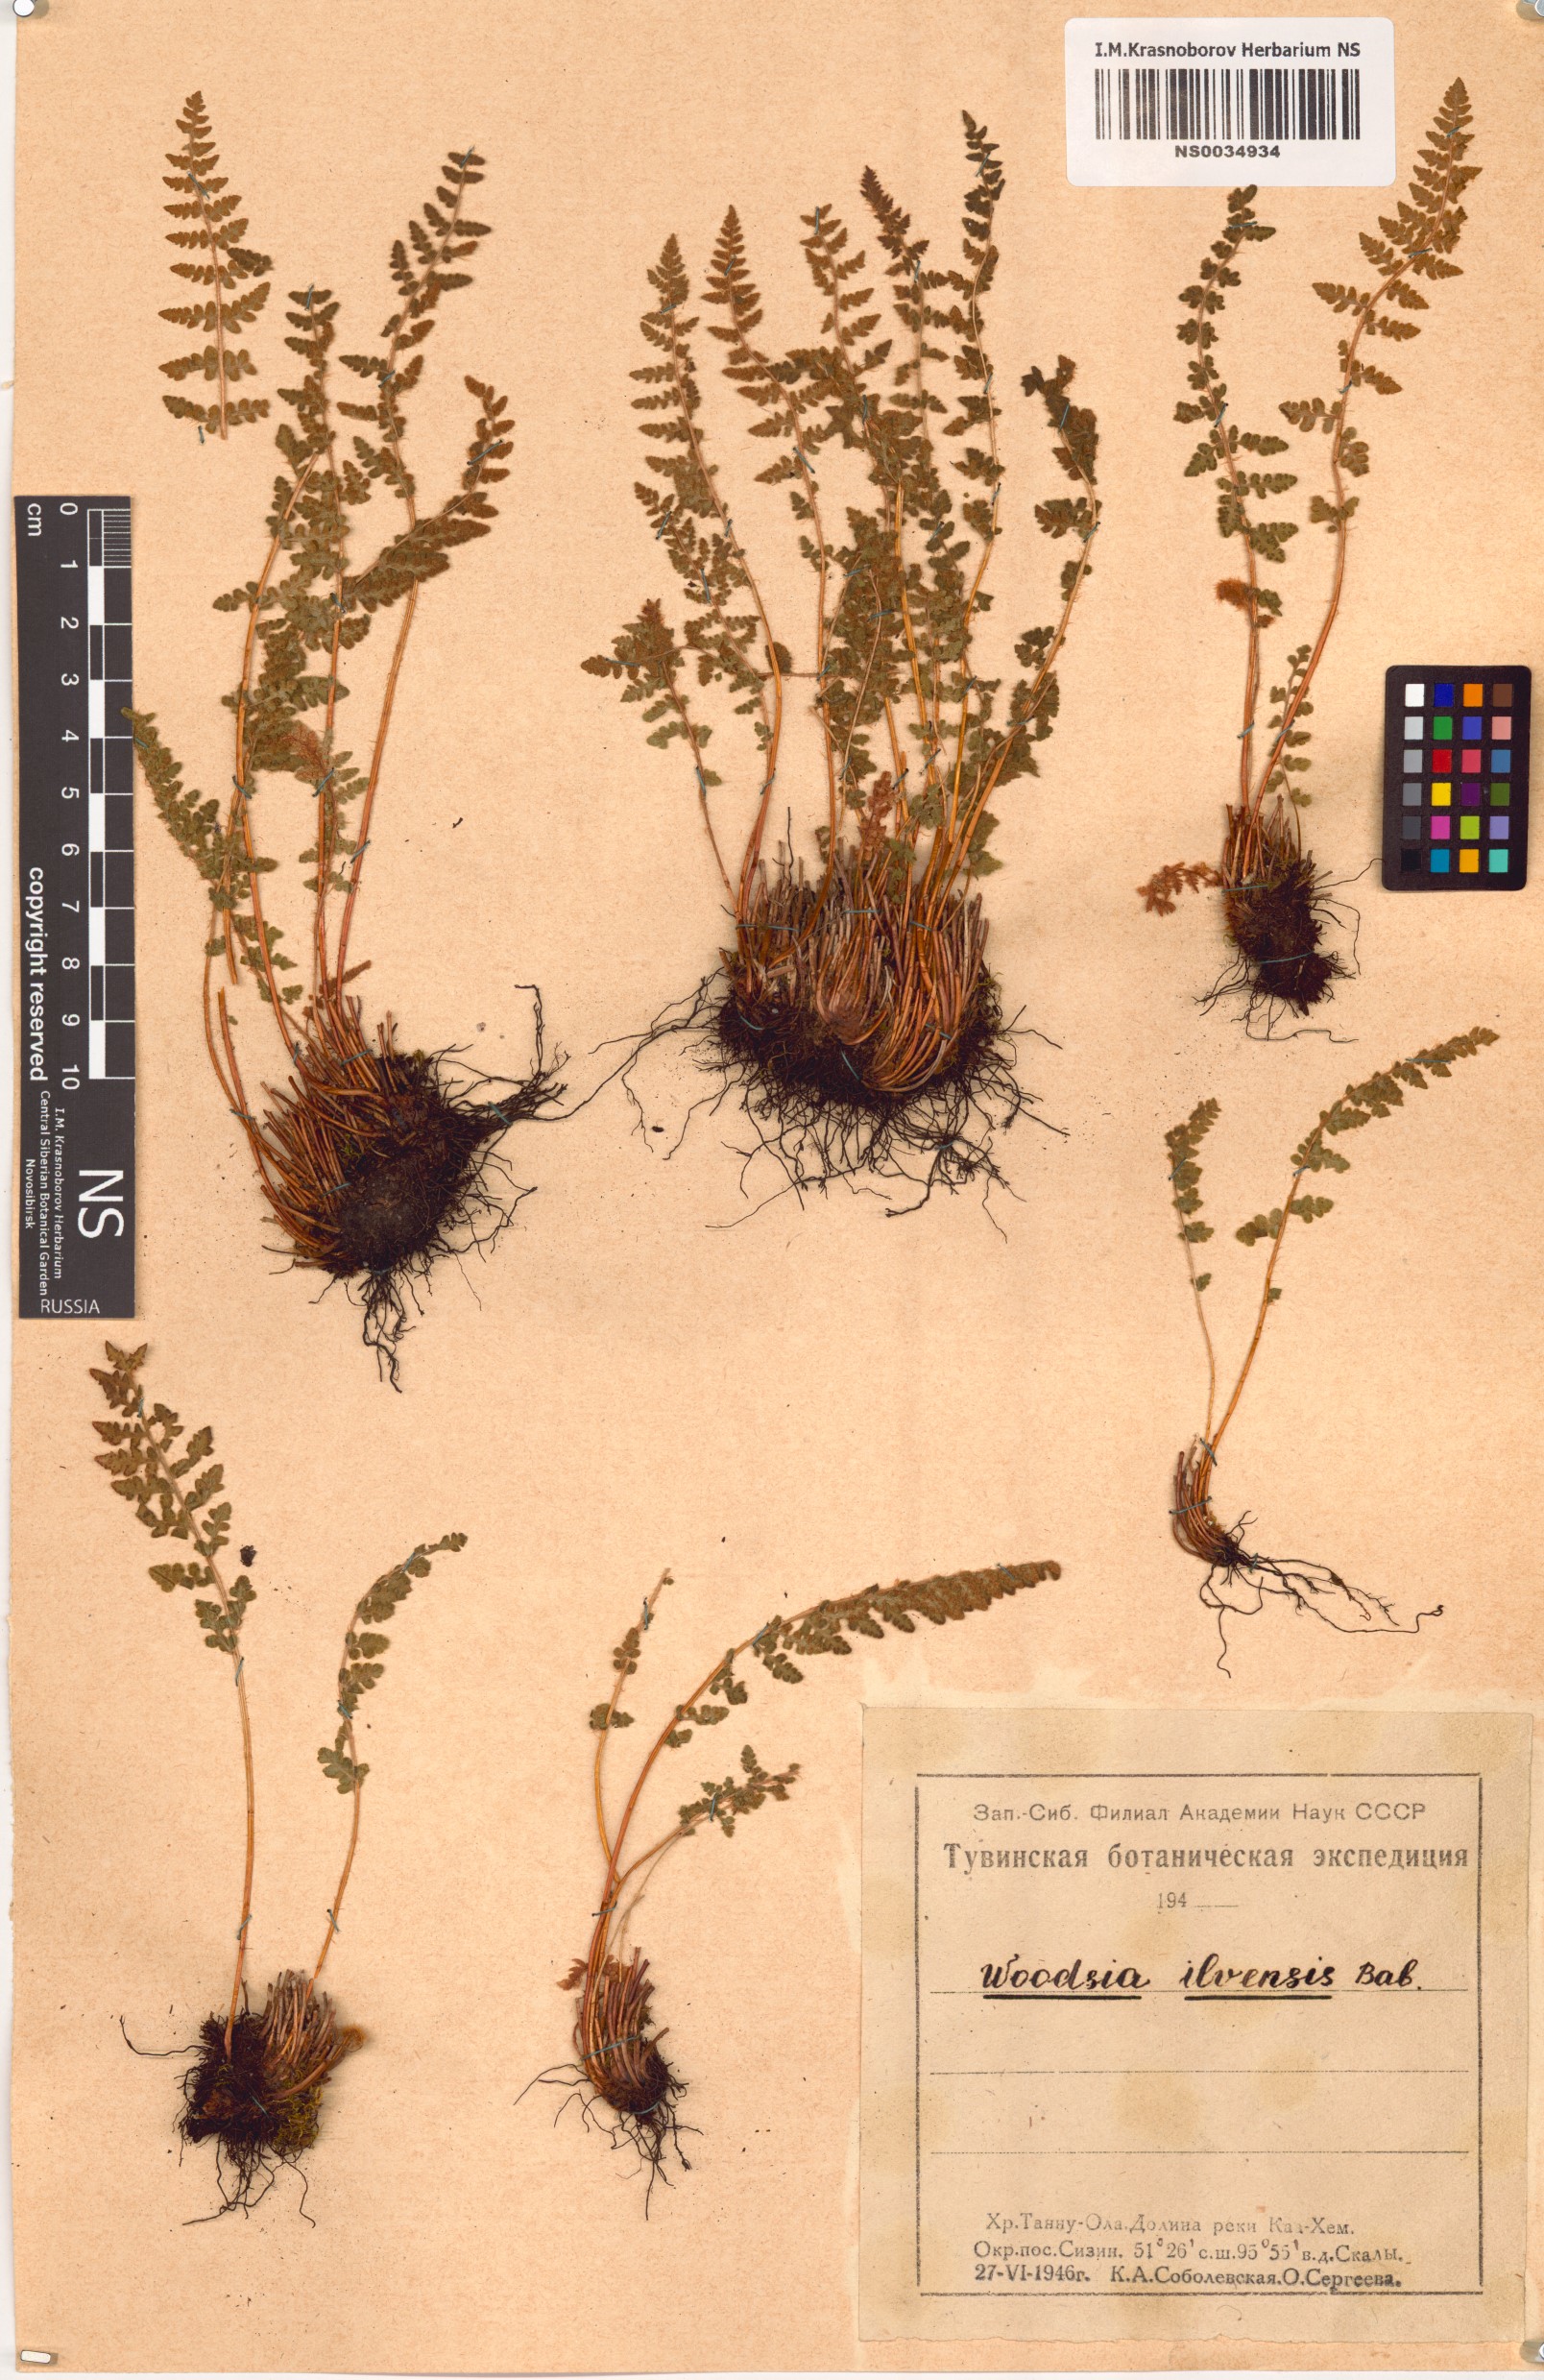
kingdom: Plantae
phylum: Tracheophyta
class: Polypodiopsida
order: Polypodiales
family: Woodsiaceae
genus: Woodsia
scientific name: Woodsia ilvensis
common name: Fragrant woodsia
